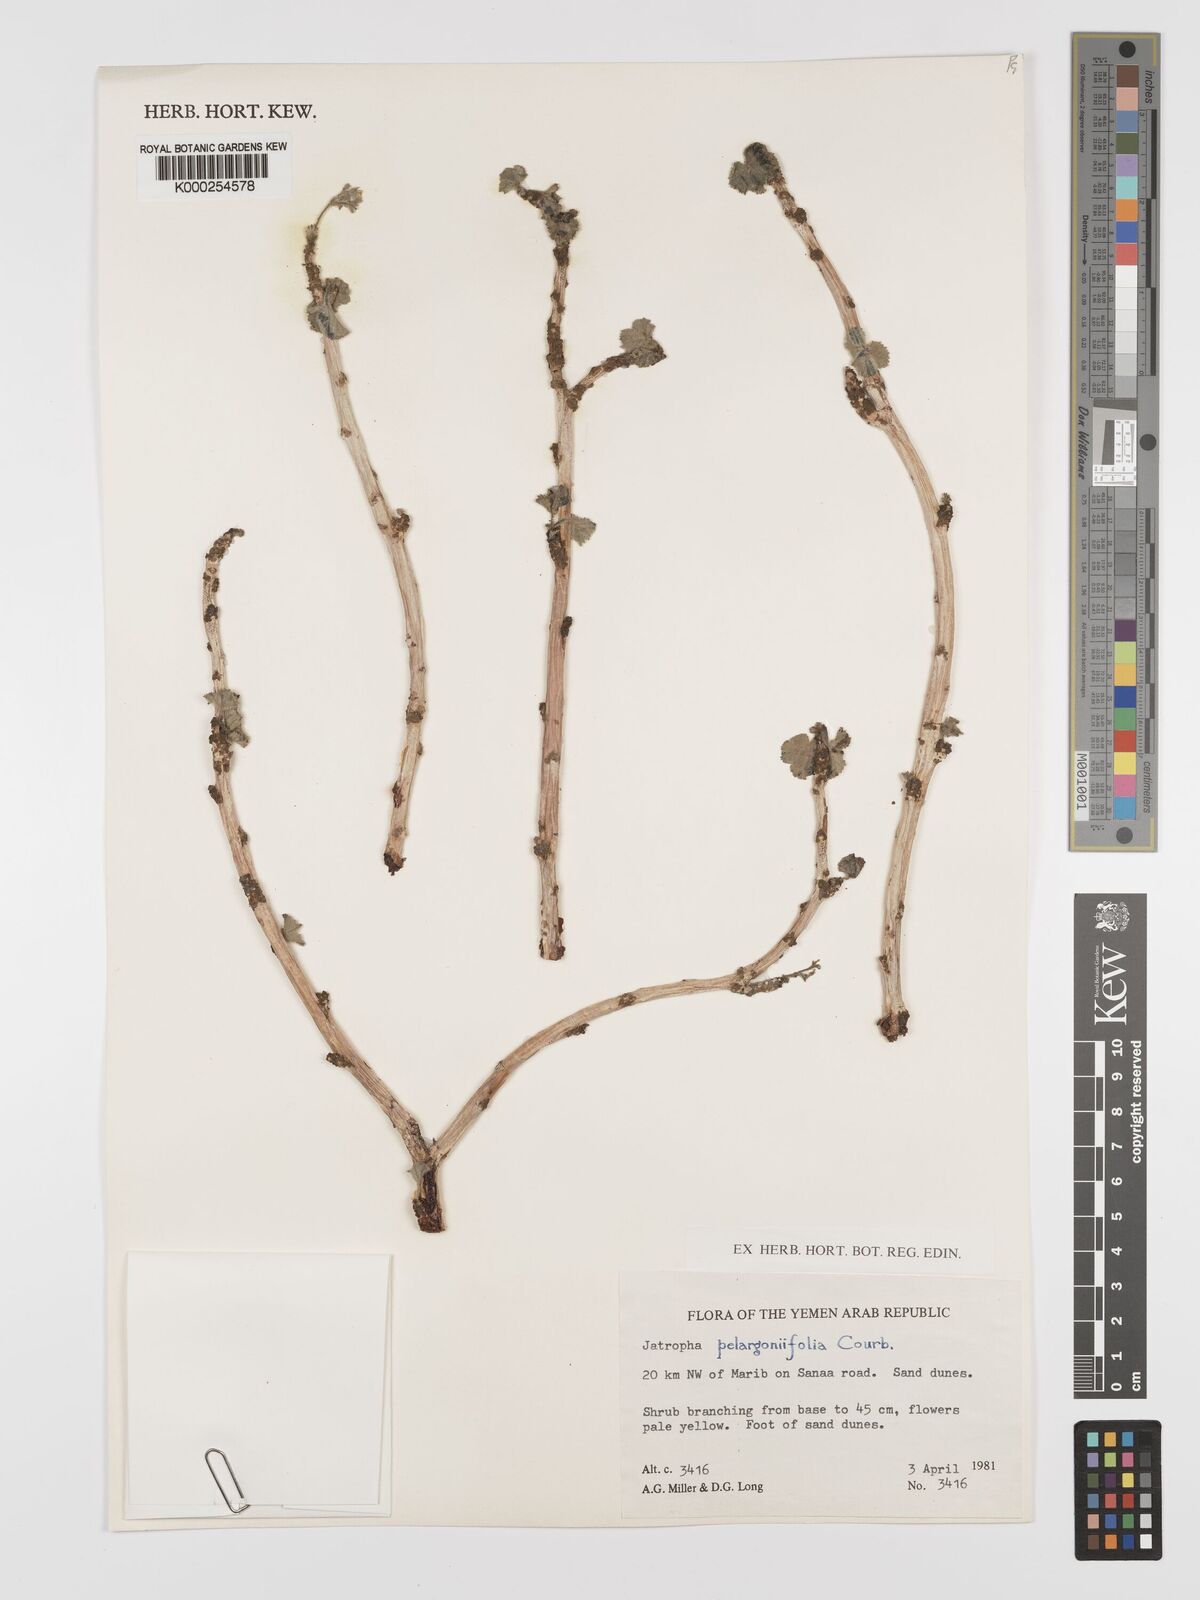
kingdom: Plantae
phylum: Tracheophyta
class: Magnoliopsida
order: Malpighiales
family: Euphorbiaceae
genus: Jatropha
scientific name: Jatropha pelargoniifolia
